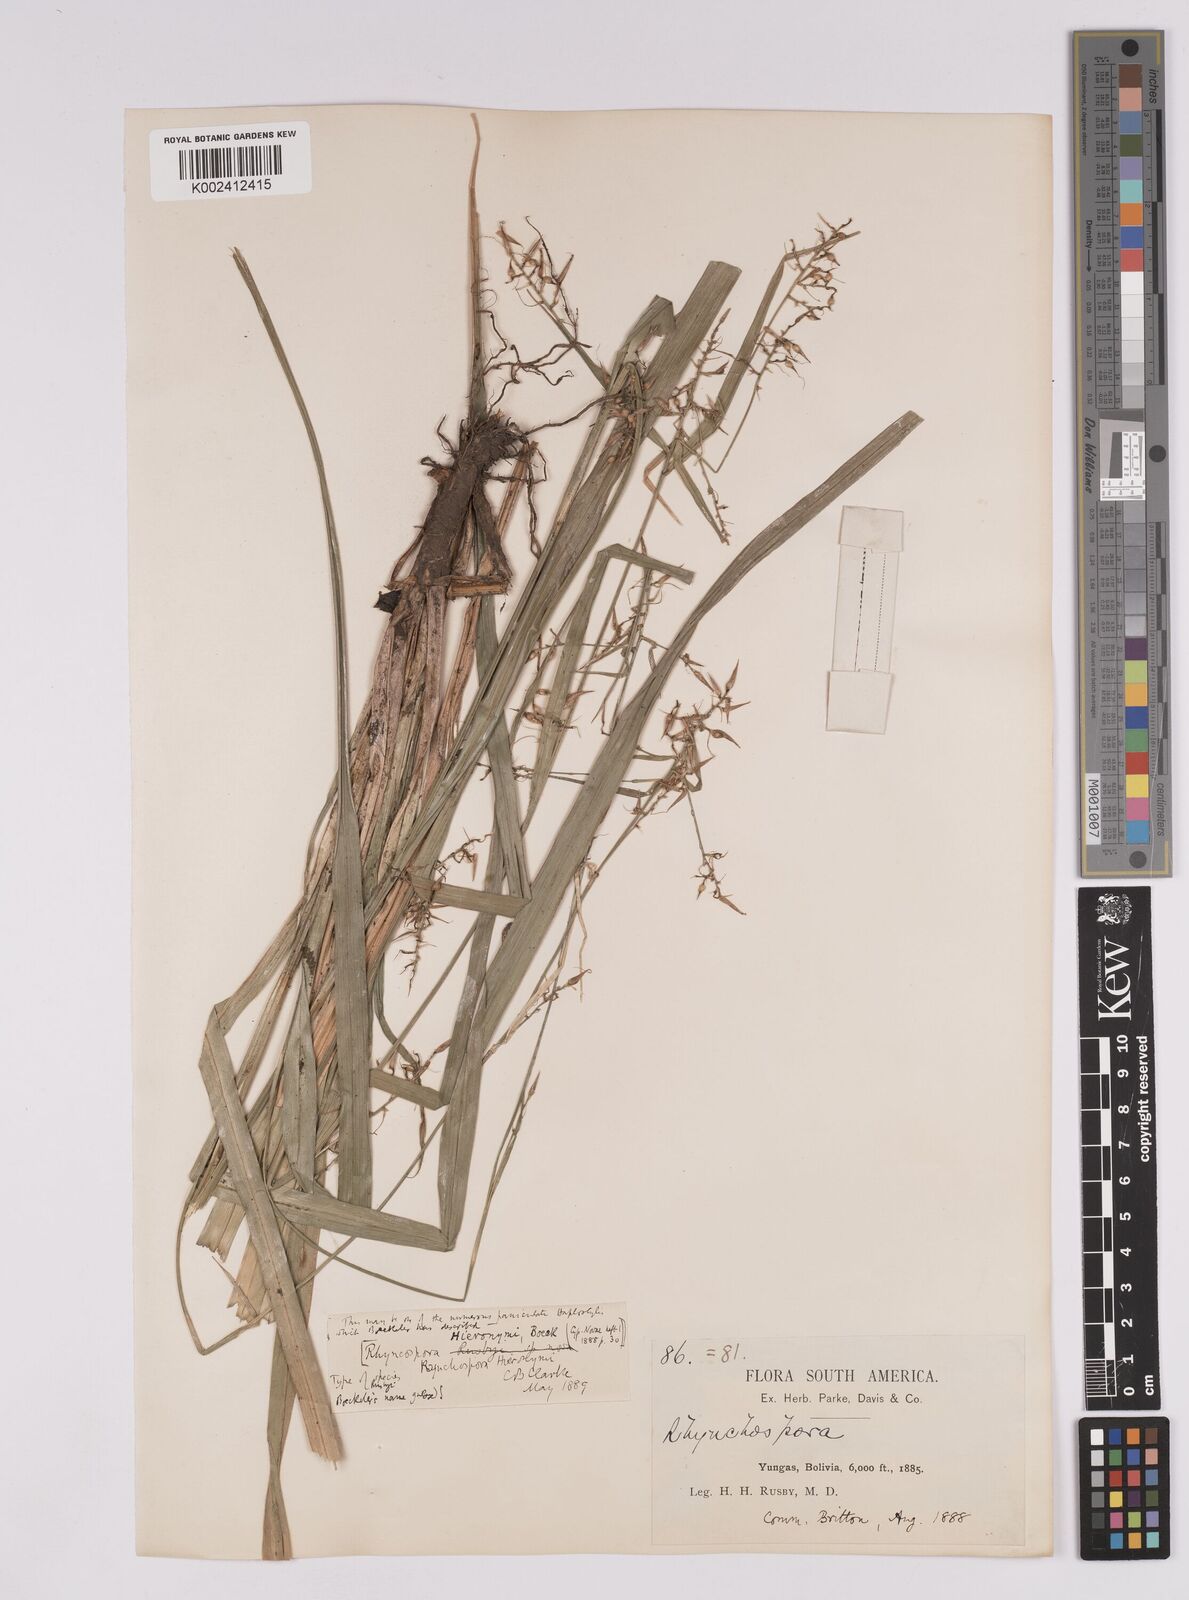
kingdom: Plantae
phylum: Tracheophyta
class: Liliopsida
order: Poales
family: Cyperaceae
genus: Rhynchospora
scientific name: Rhynchospora hieronymi
